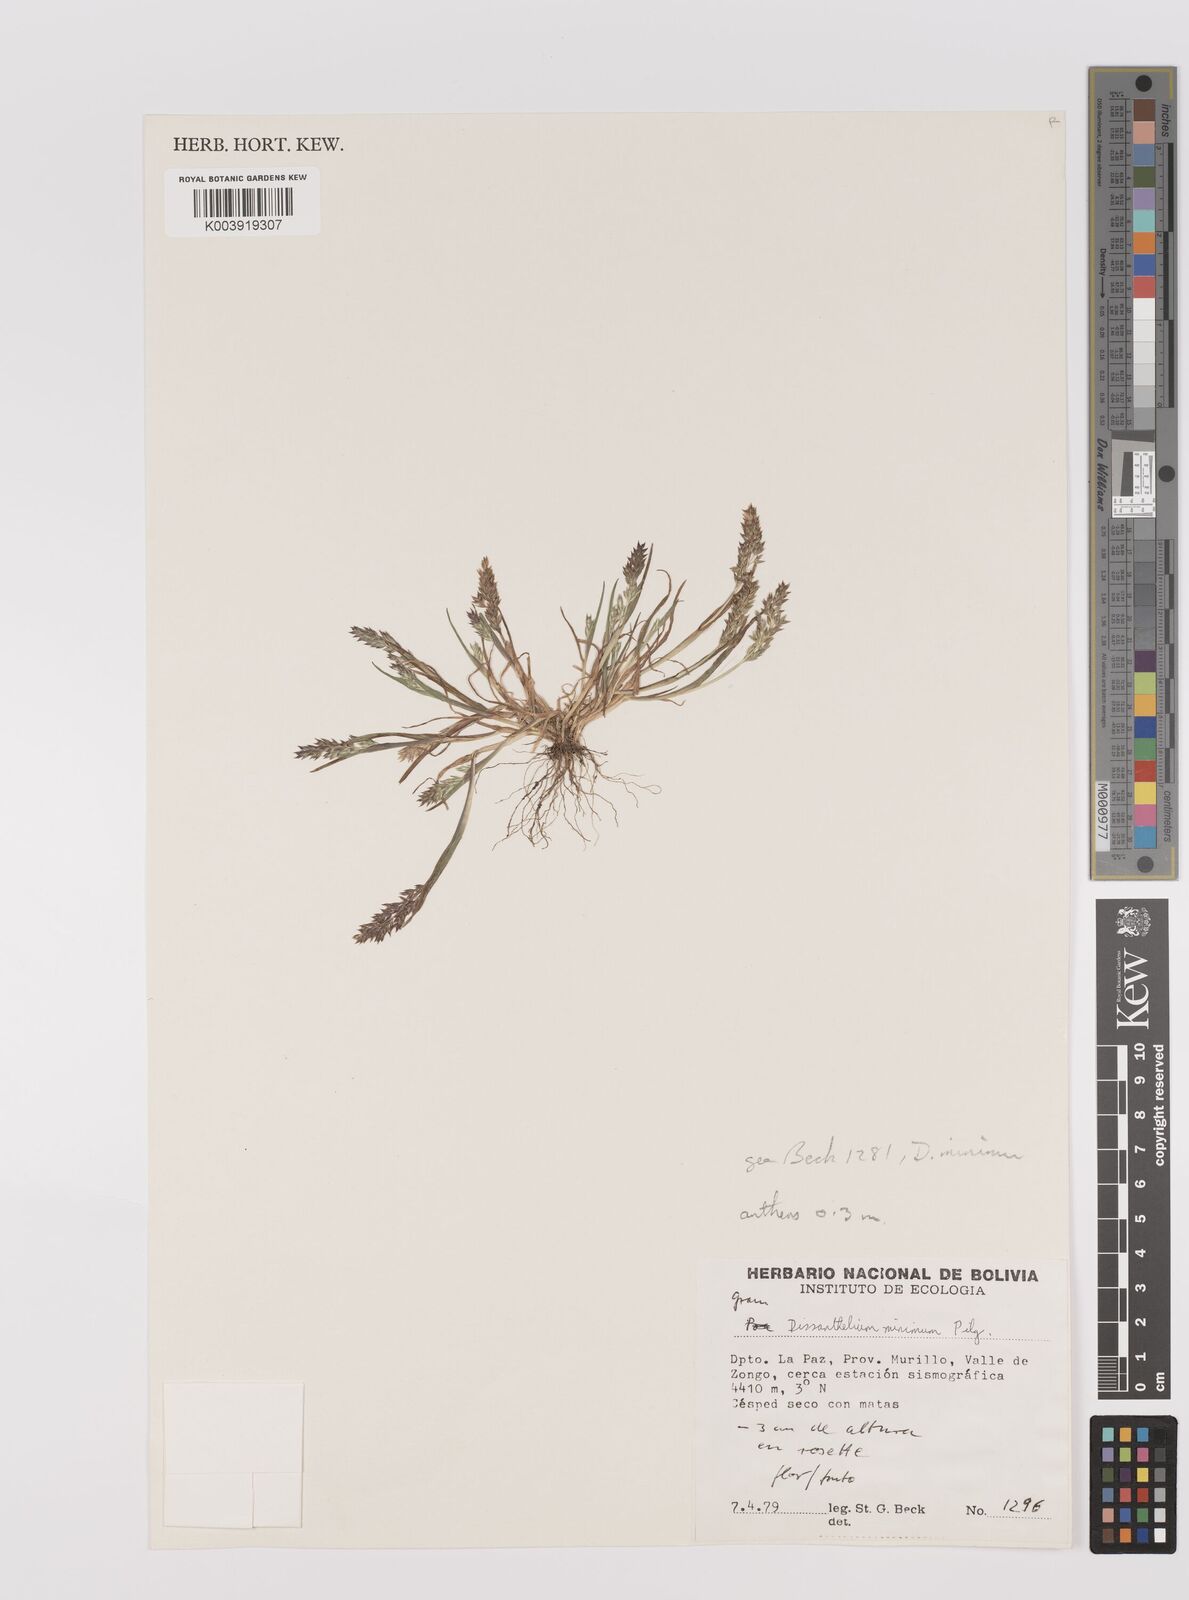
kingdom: Plantae
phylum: Tracheophyta
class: Liliopsida
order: Poales
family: Poaceae
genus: Poa
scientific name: Poa serpana
